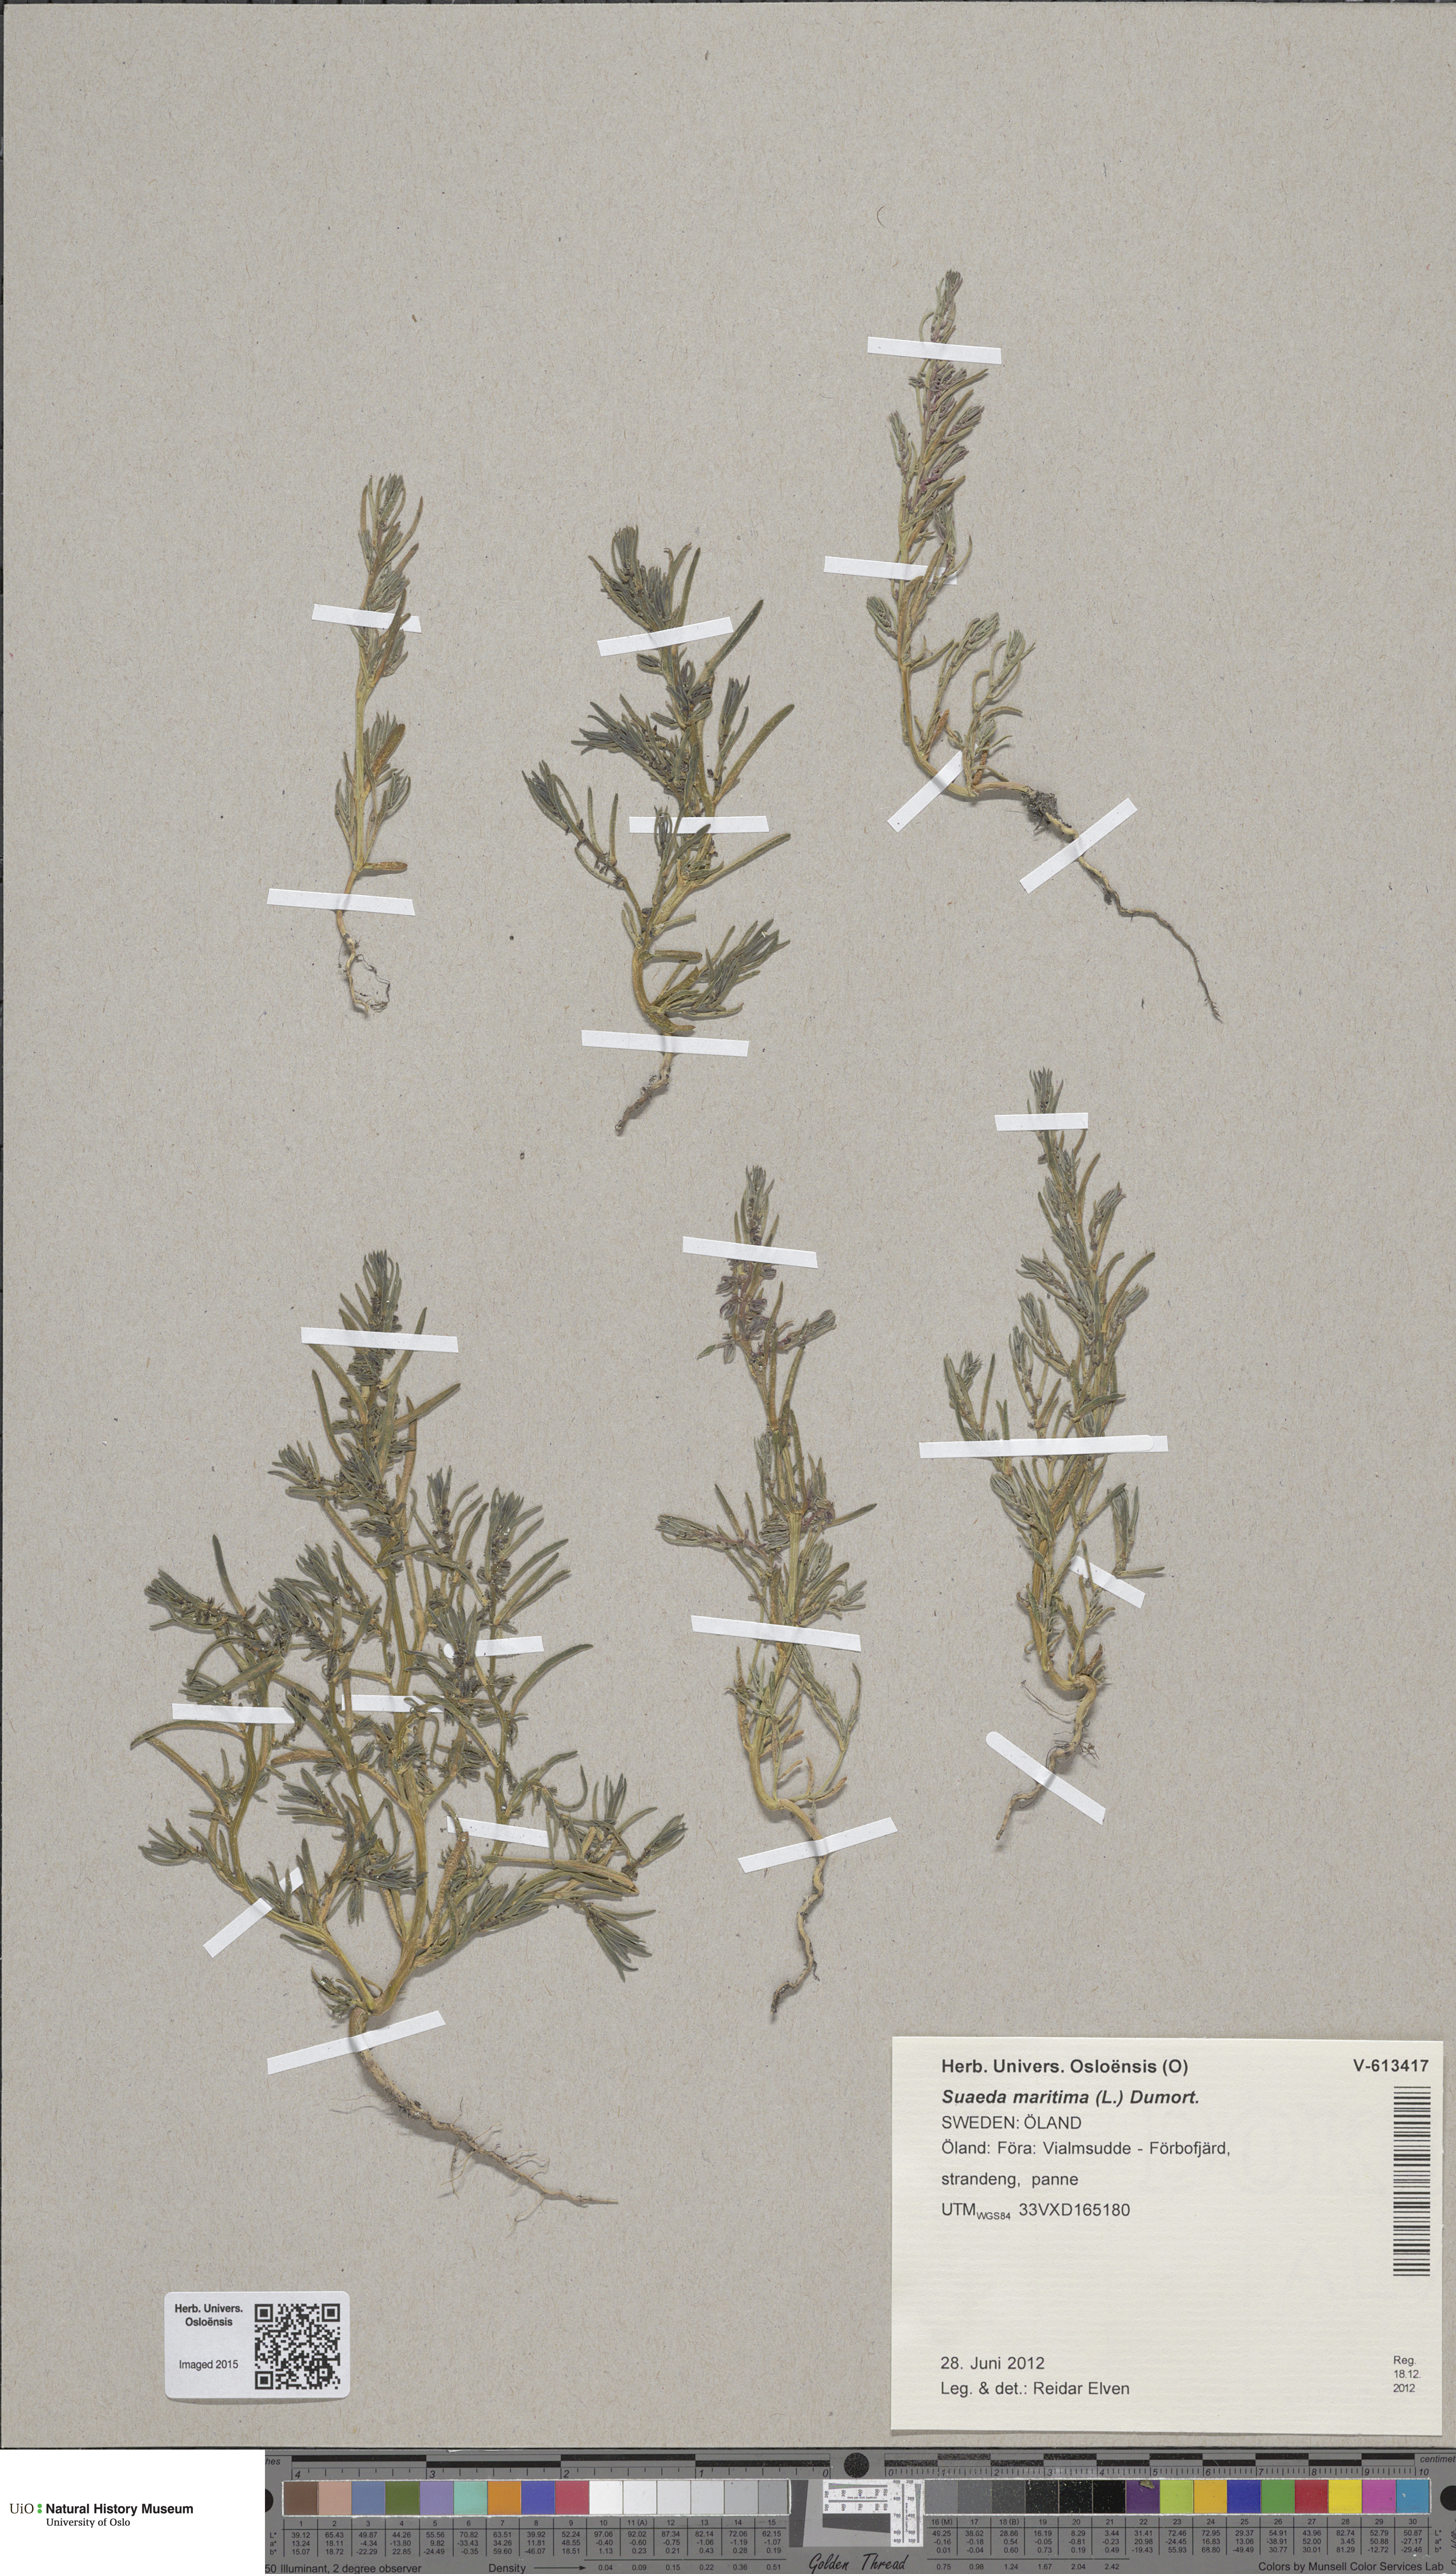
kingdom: Plantae
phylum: Tracheophyta
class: Magnoliopsida
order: Caryophyllales
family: Amaranthaceae
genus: Suaeda
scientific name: Suaeda maritima
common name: Annual sea-blite
